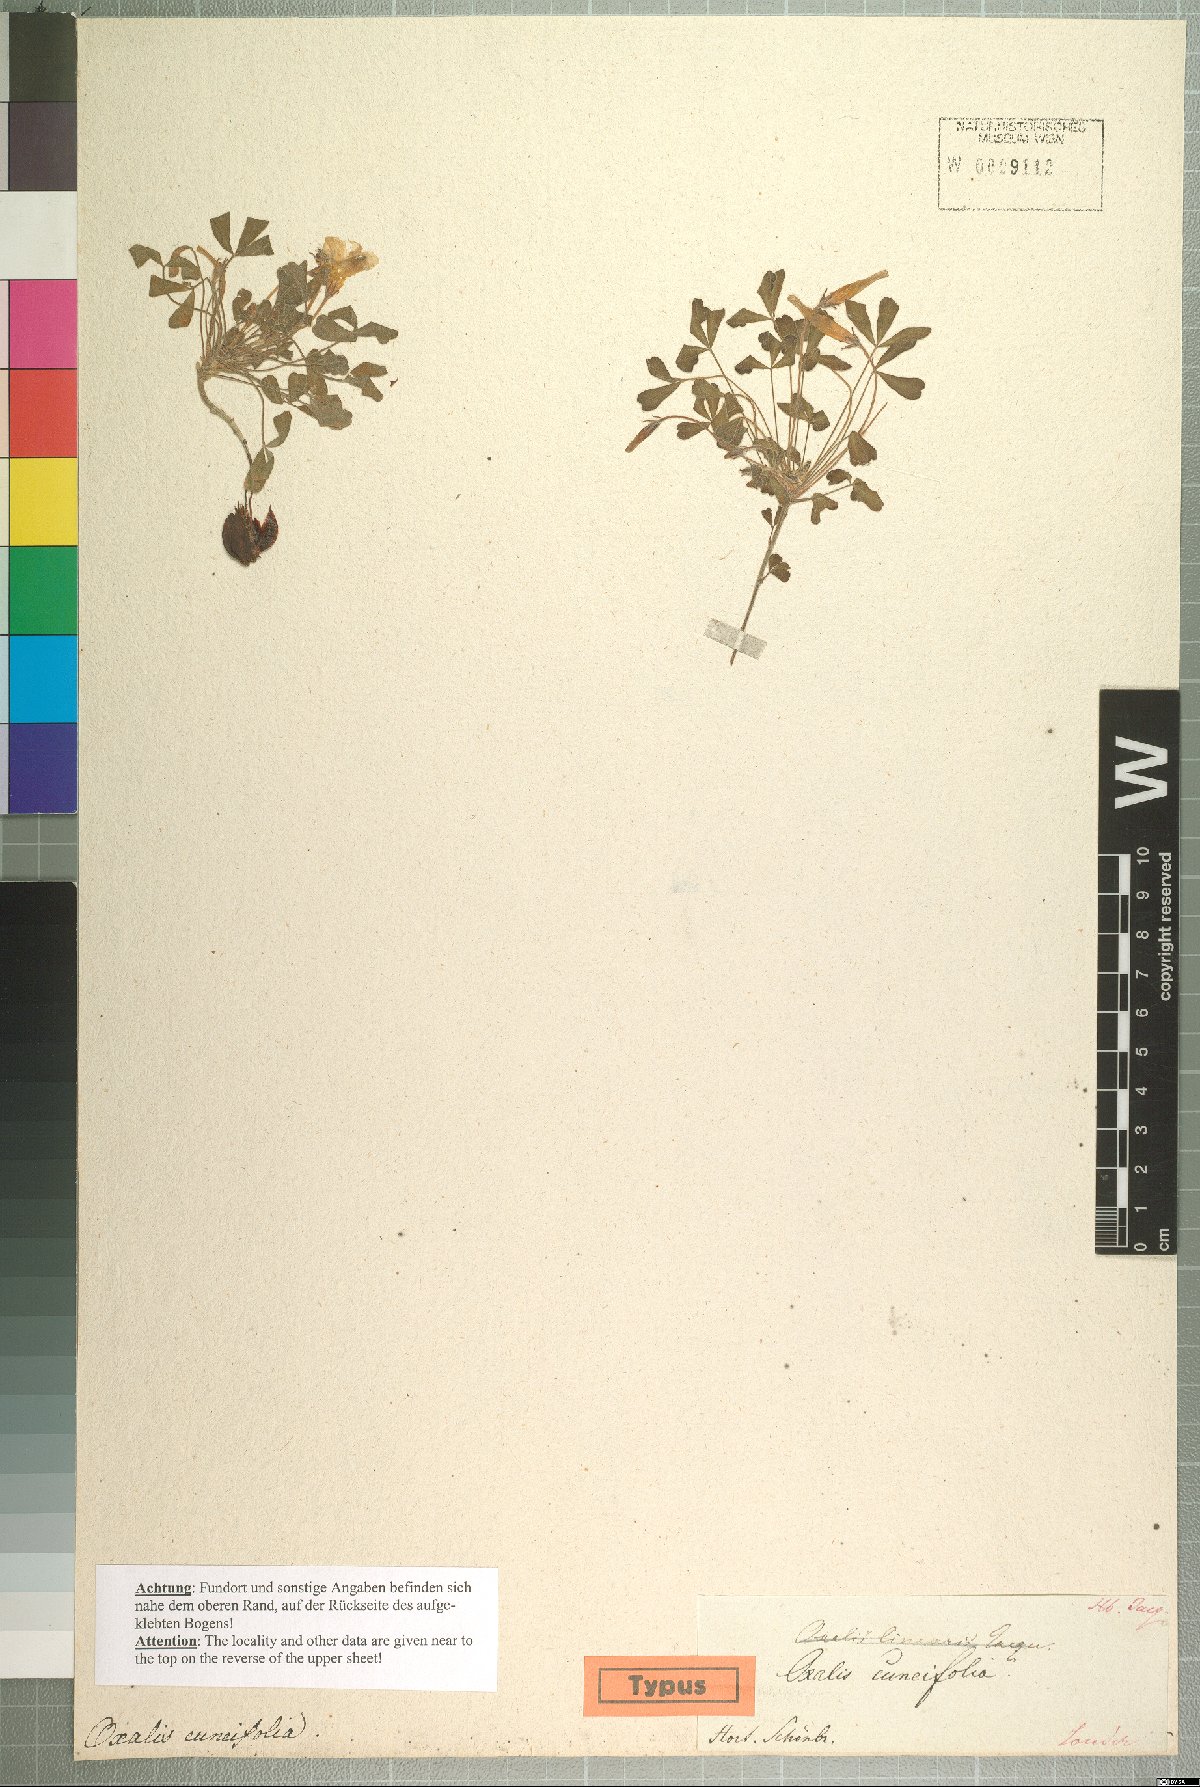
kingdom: Plantae
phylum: Tracheophyta
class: Magnoliopsida
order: Oxalidales
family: Oxalidaceae
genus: Oxalis
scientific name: Oxalis cuneata
